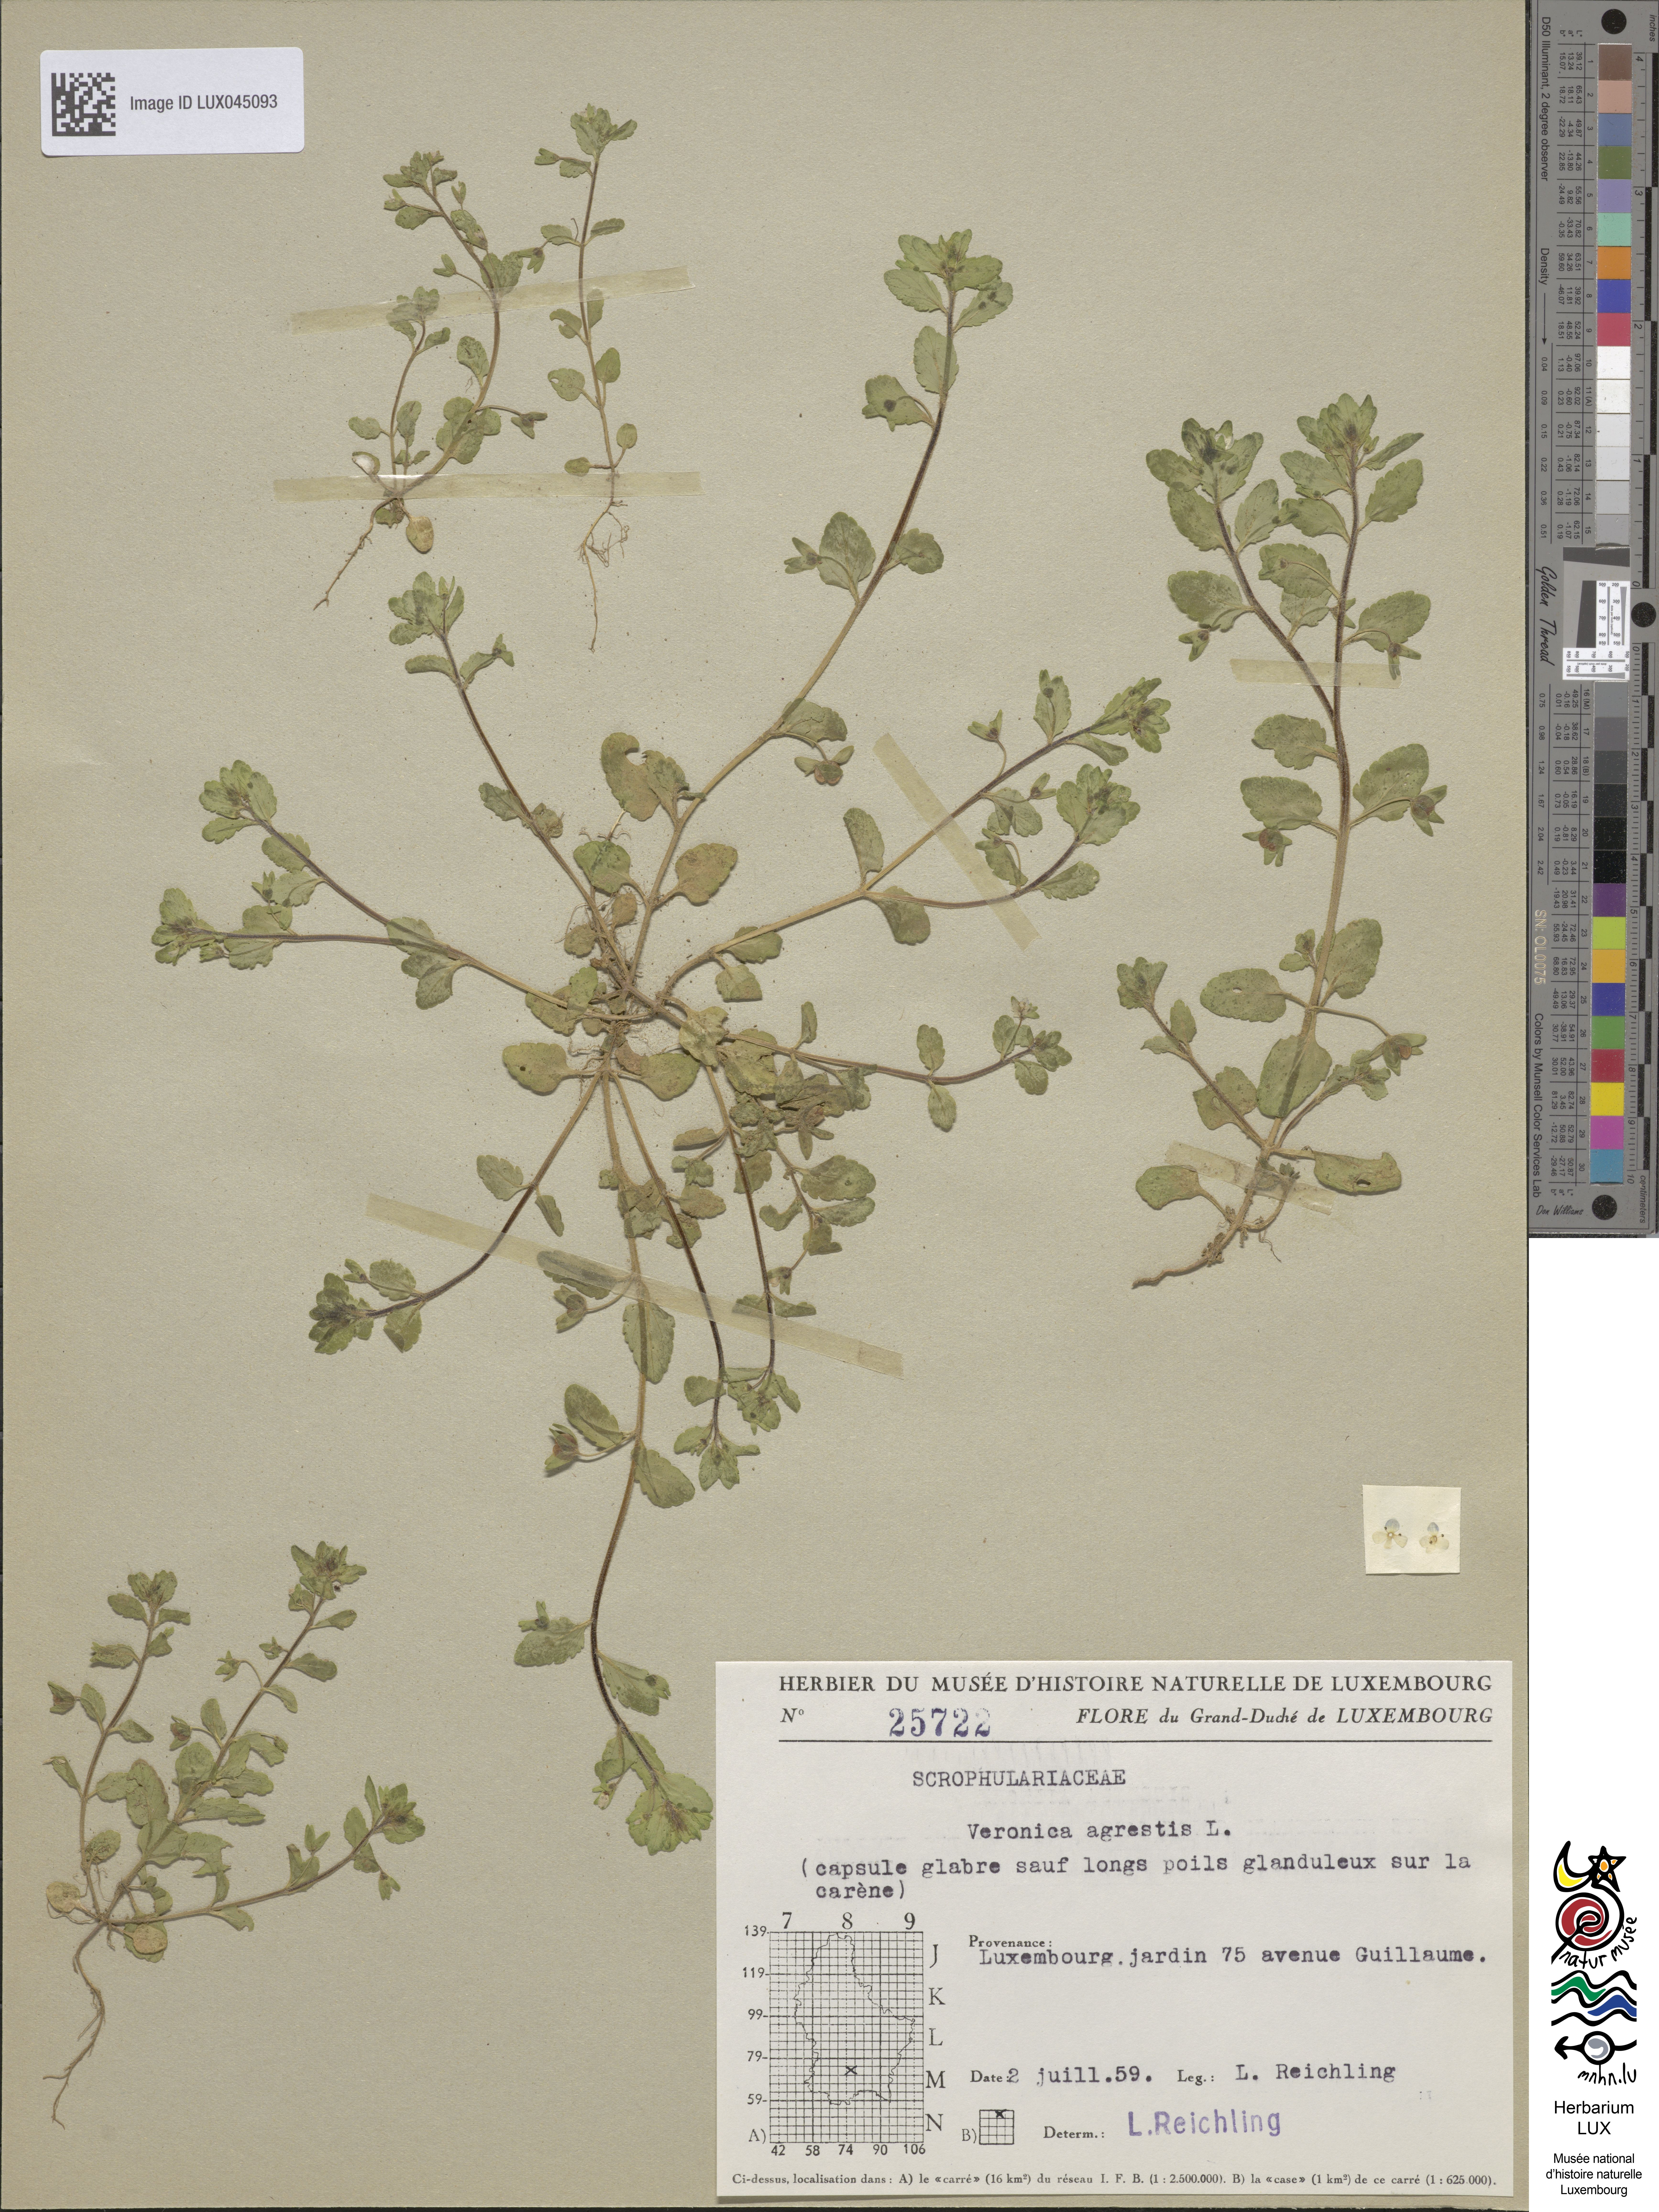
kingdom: Plantae
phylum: Tracheophyta
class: Magnoliopsida
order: Lamiales
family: Plantaginaceae
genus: Veronica
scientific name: Veronica agrestis
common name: Green field-speedwell
